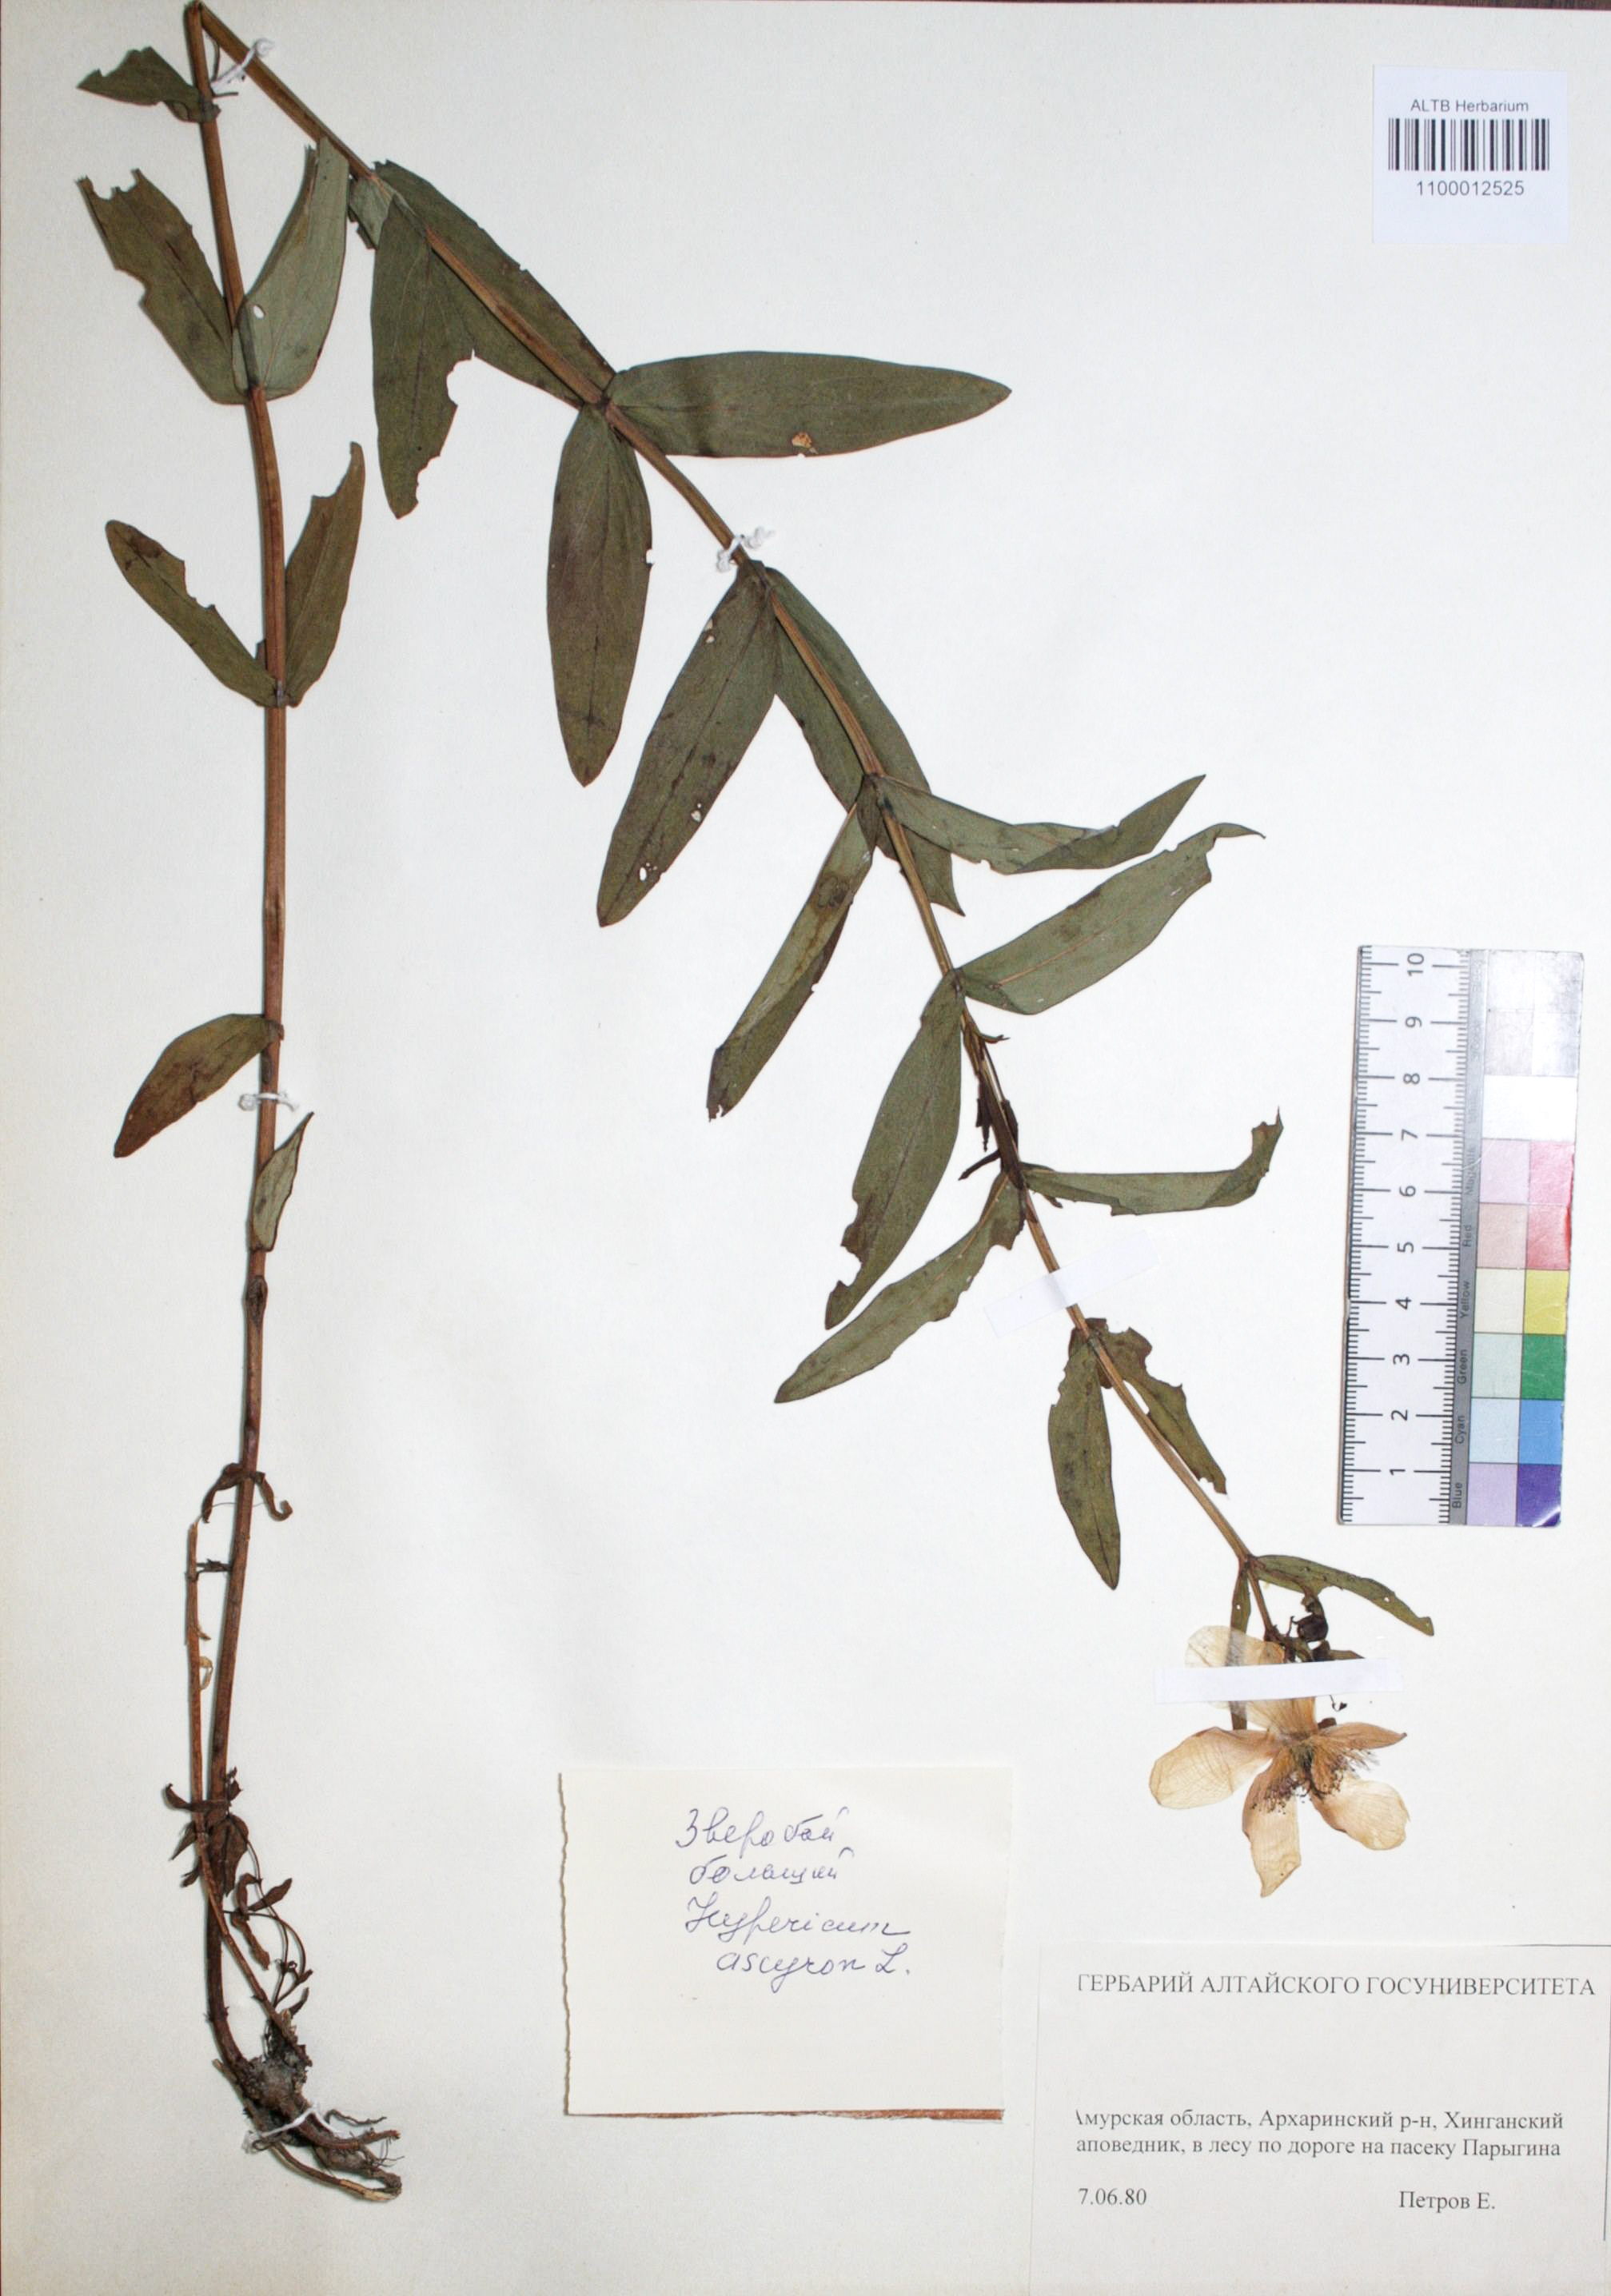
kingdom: Plantae
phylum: Tracheophyta
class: Magnoliopsida
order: Malpighiales
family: Hypericaceae
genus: Hypericum
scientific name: Hypericum ascyron
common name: Giant st. john's-wort
